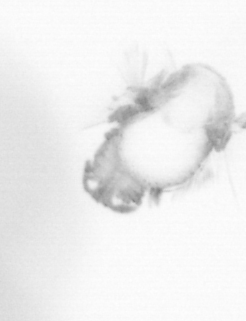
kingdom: Animalia
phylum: Annelida
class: Polychaeta
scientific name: Polychaeta
